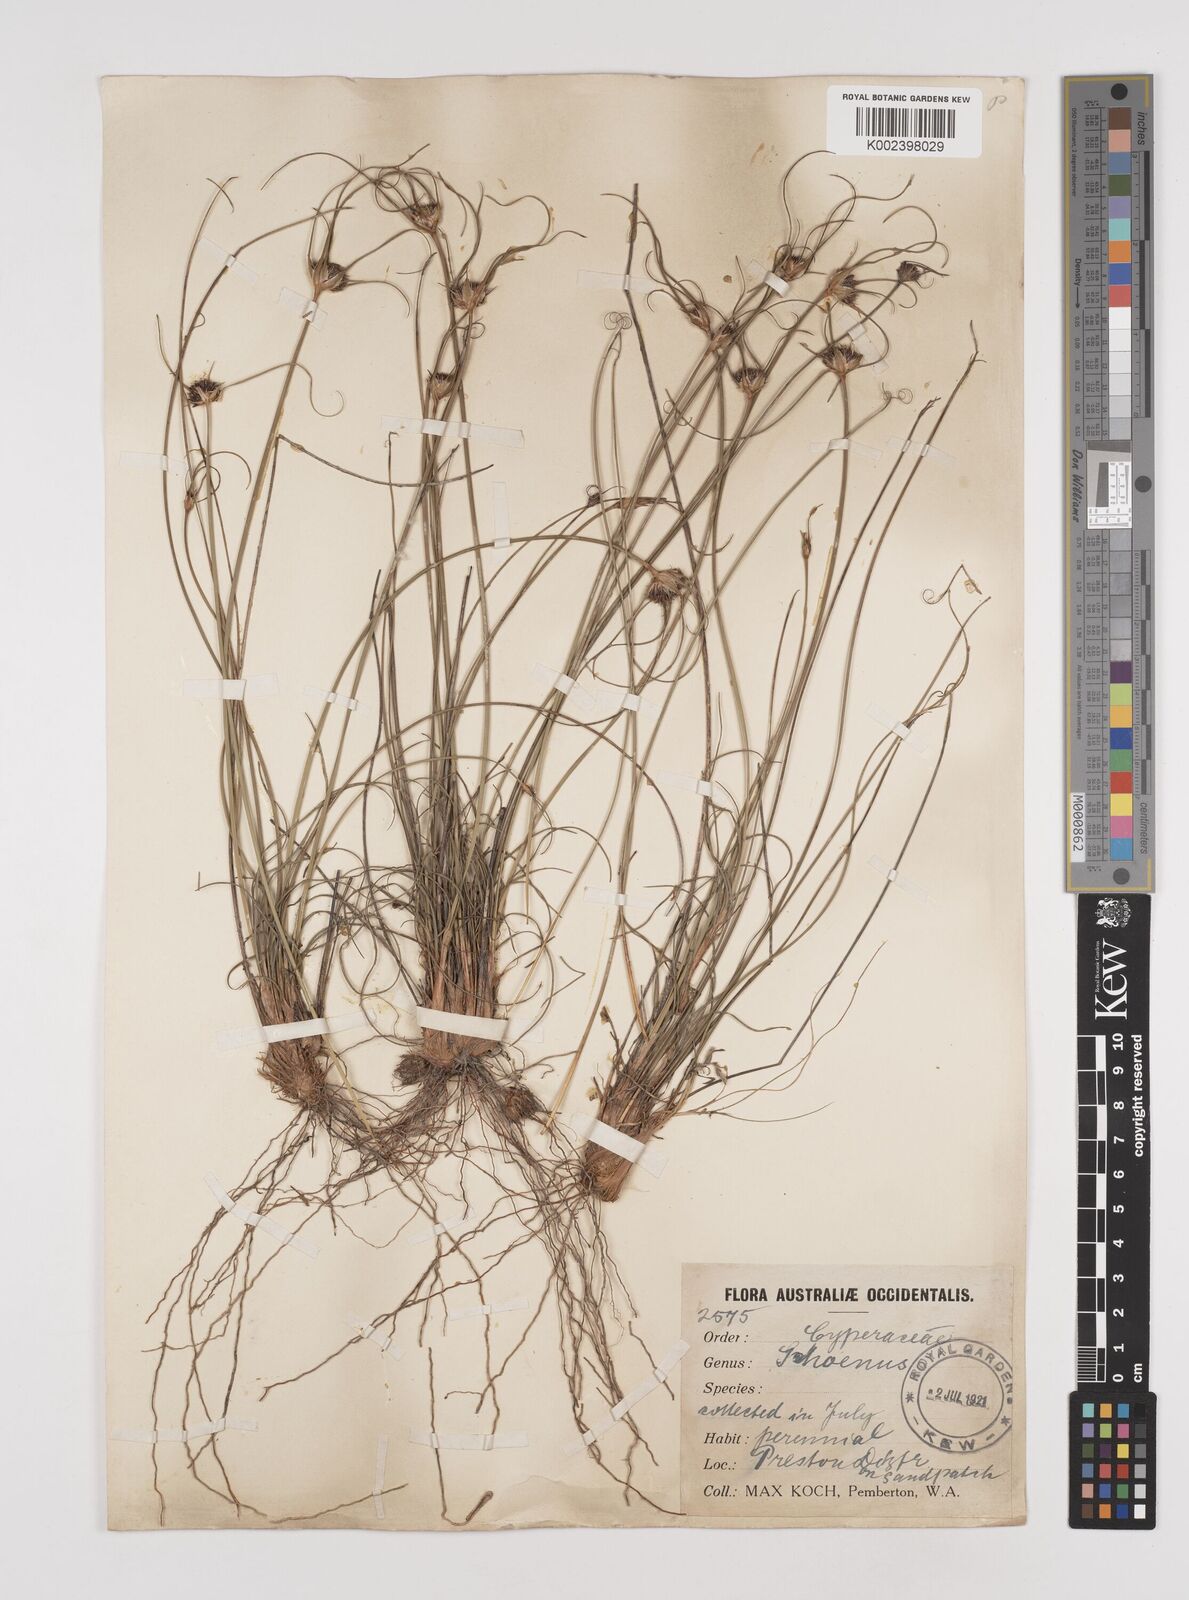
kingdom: Plantae
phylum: Tracheophyta
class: Liliopsida
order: Poales
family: Cyperaceae
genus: Schoenus
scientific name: Schoenus
